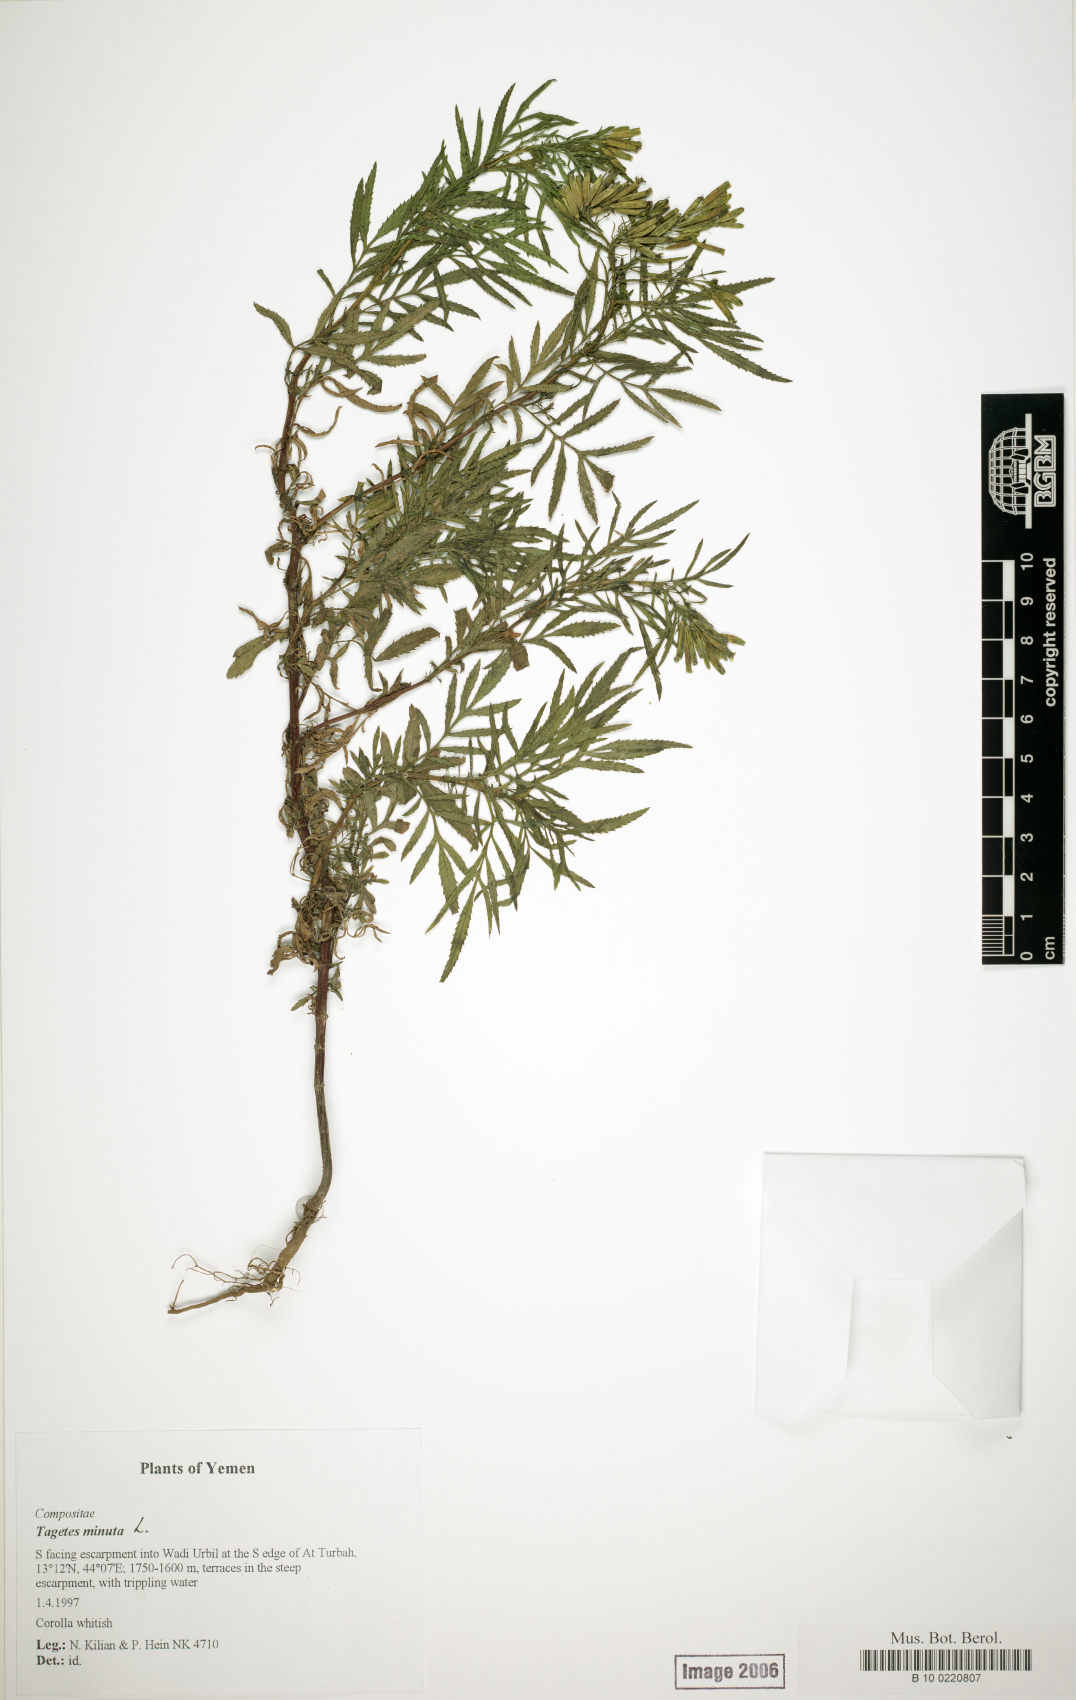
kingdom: Plantae
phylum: Tracheophyta
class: Magnoliopsida
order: Asterales
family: Asteraceae
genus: Tagetes
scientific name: Tagetes minuta
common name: Muster john henry
